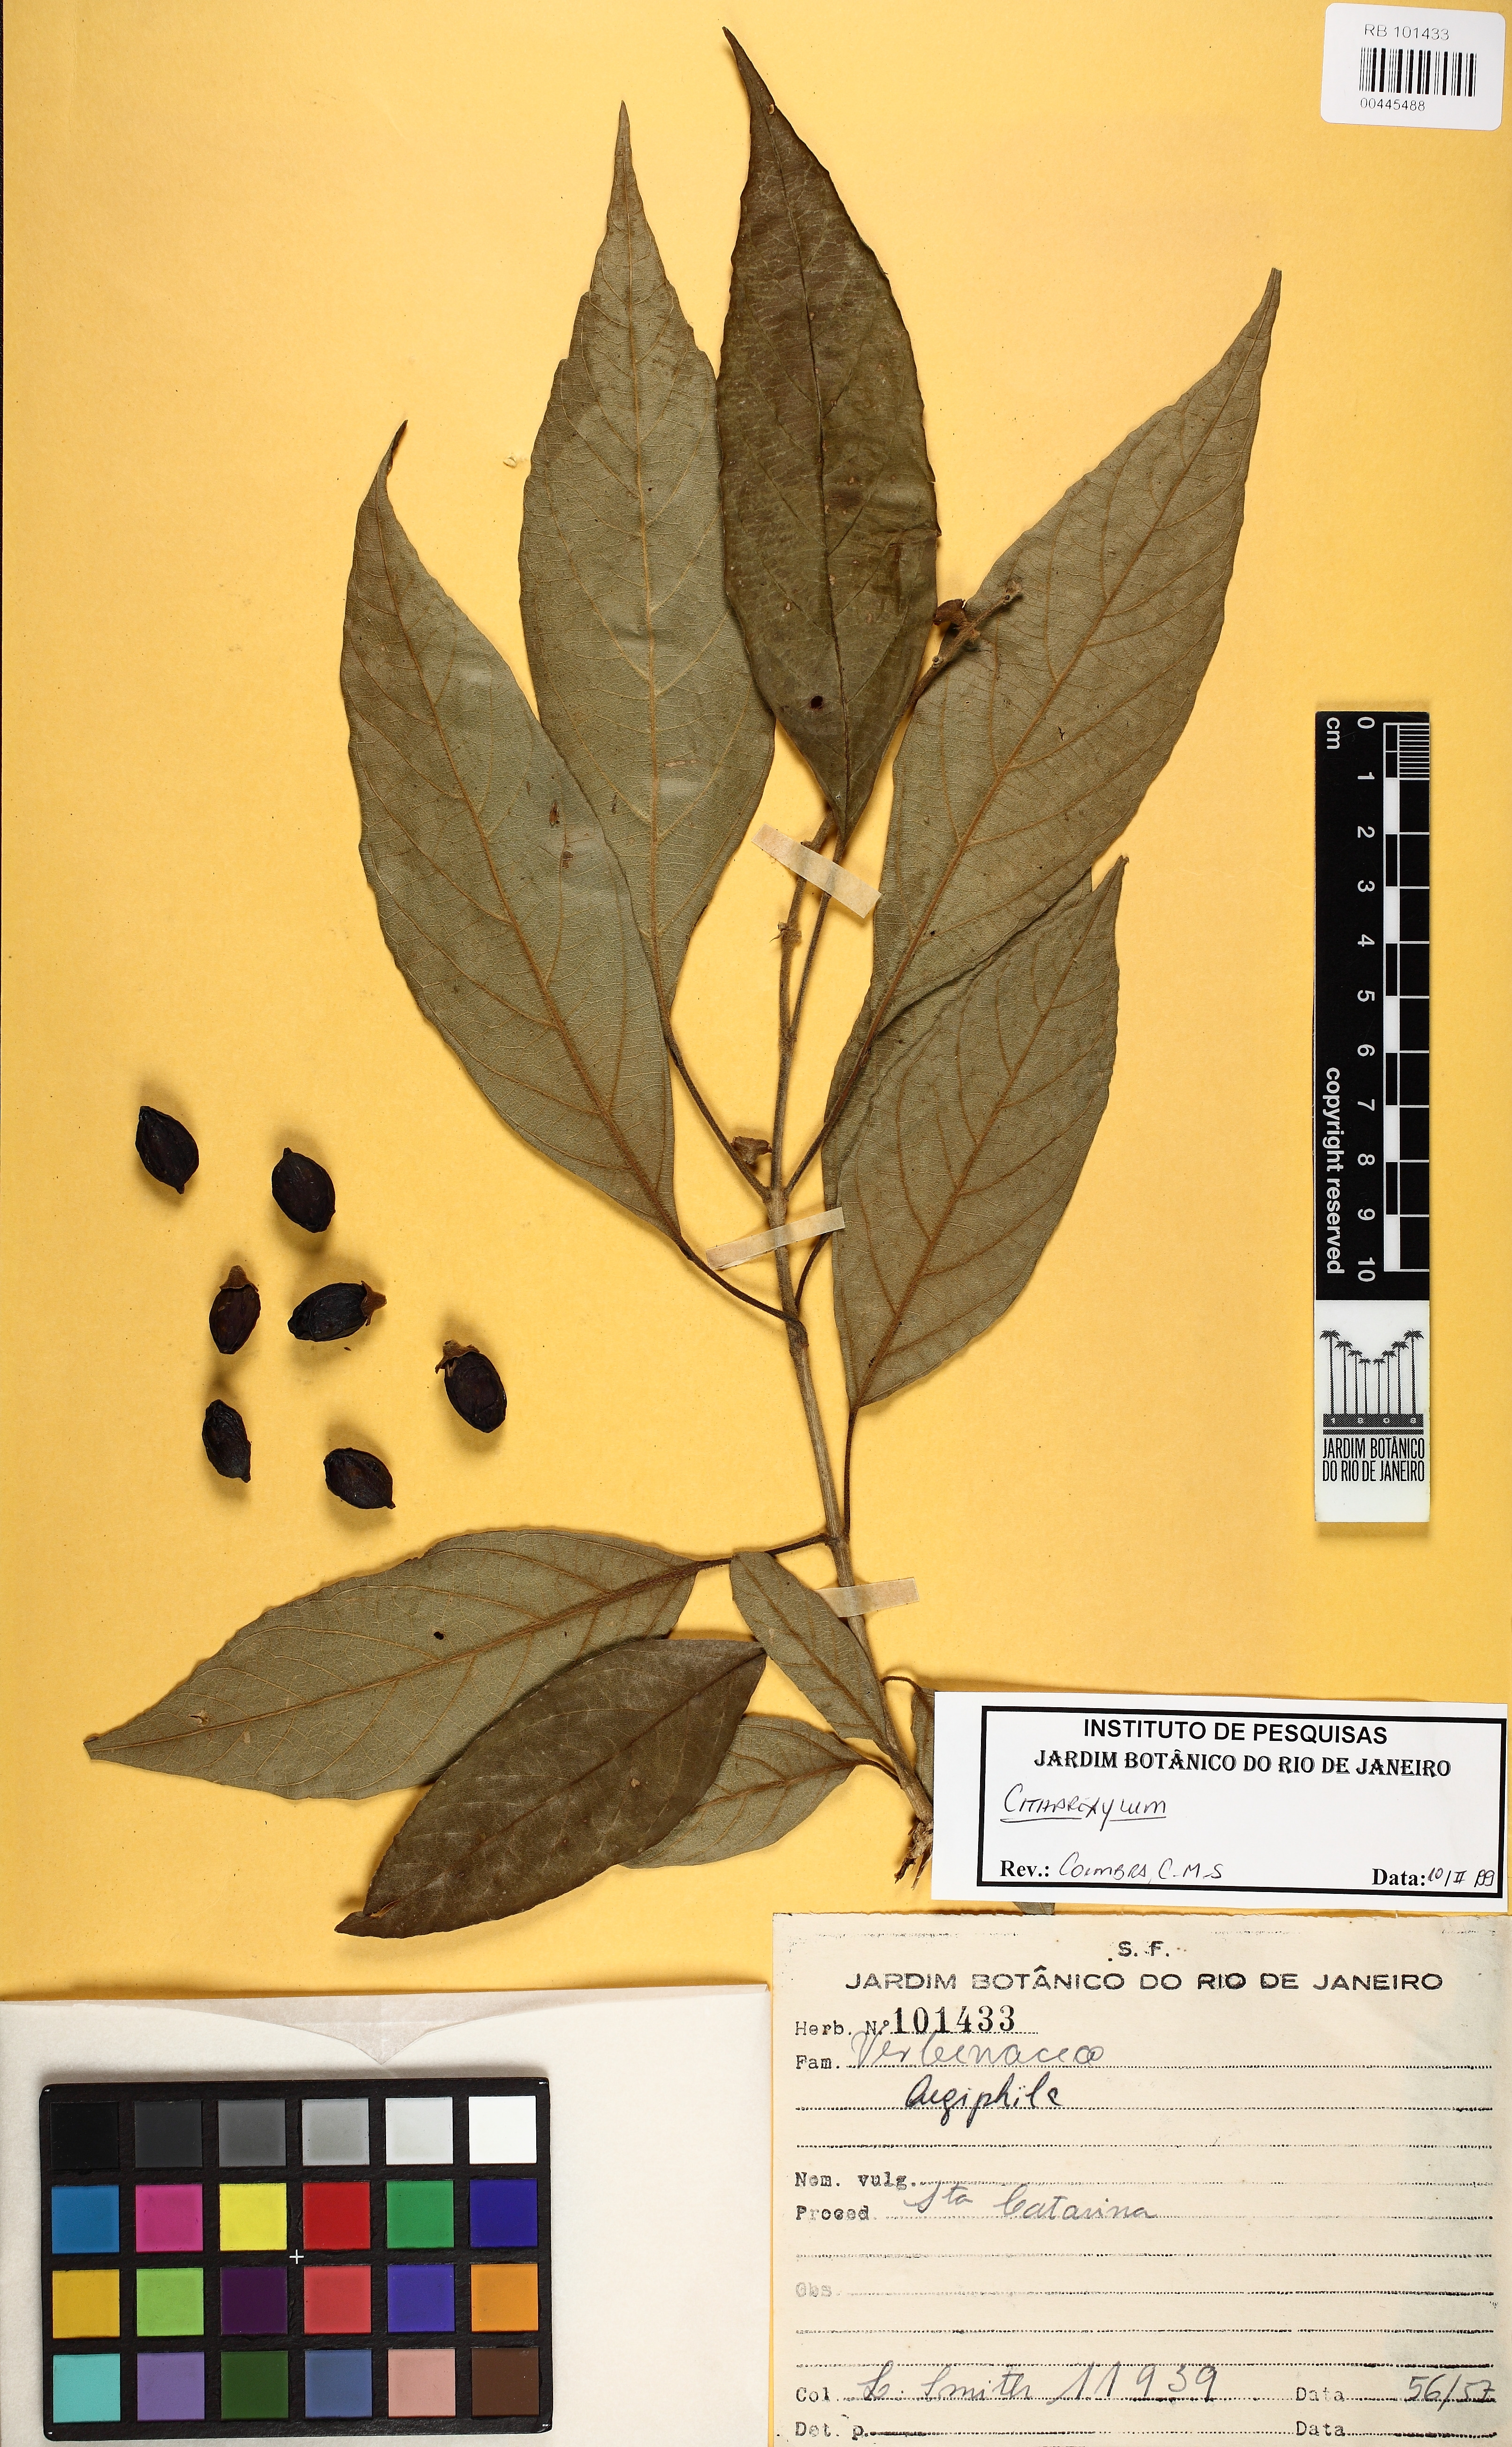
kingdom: Plantae
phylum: Tracheophyta
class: Magnoliopsida
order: Lamiales
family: Verbenaceae
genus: Citharexylum
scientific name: Citharexylum
